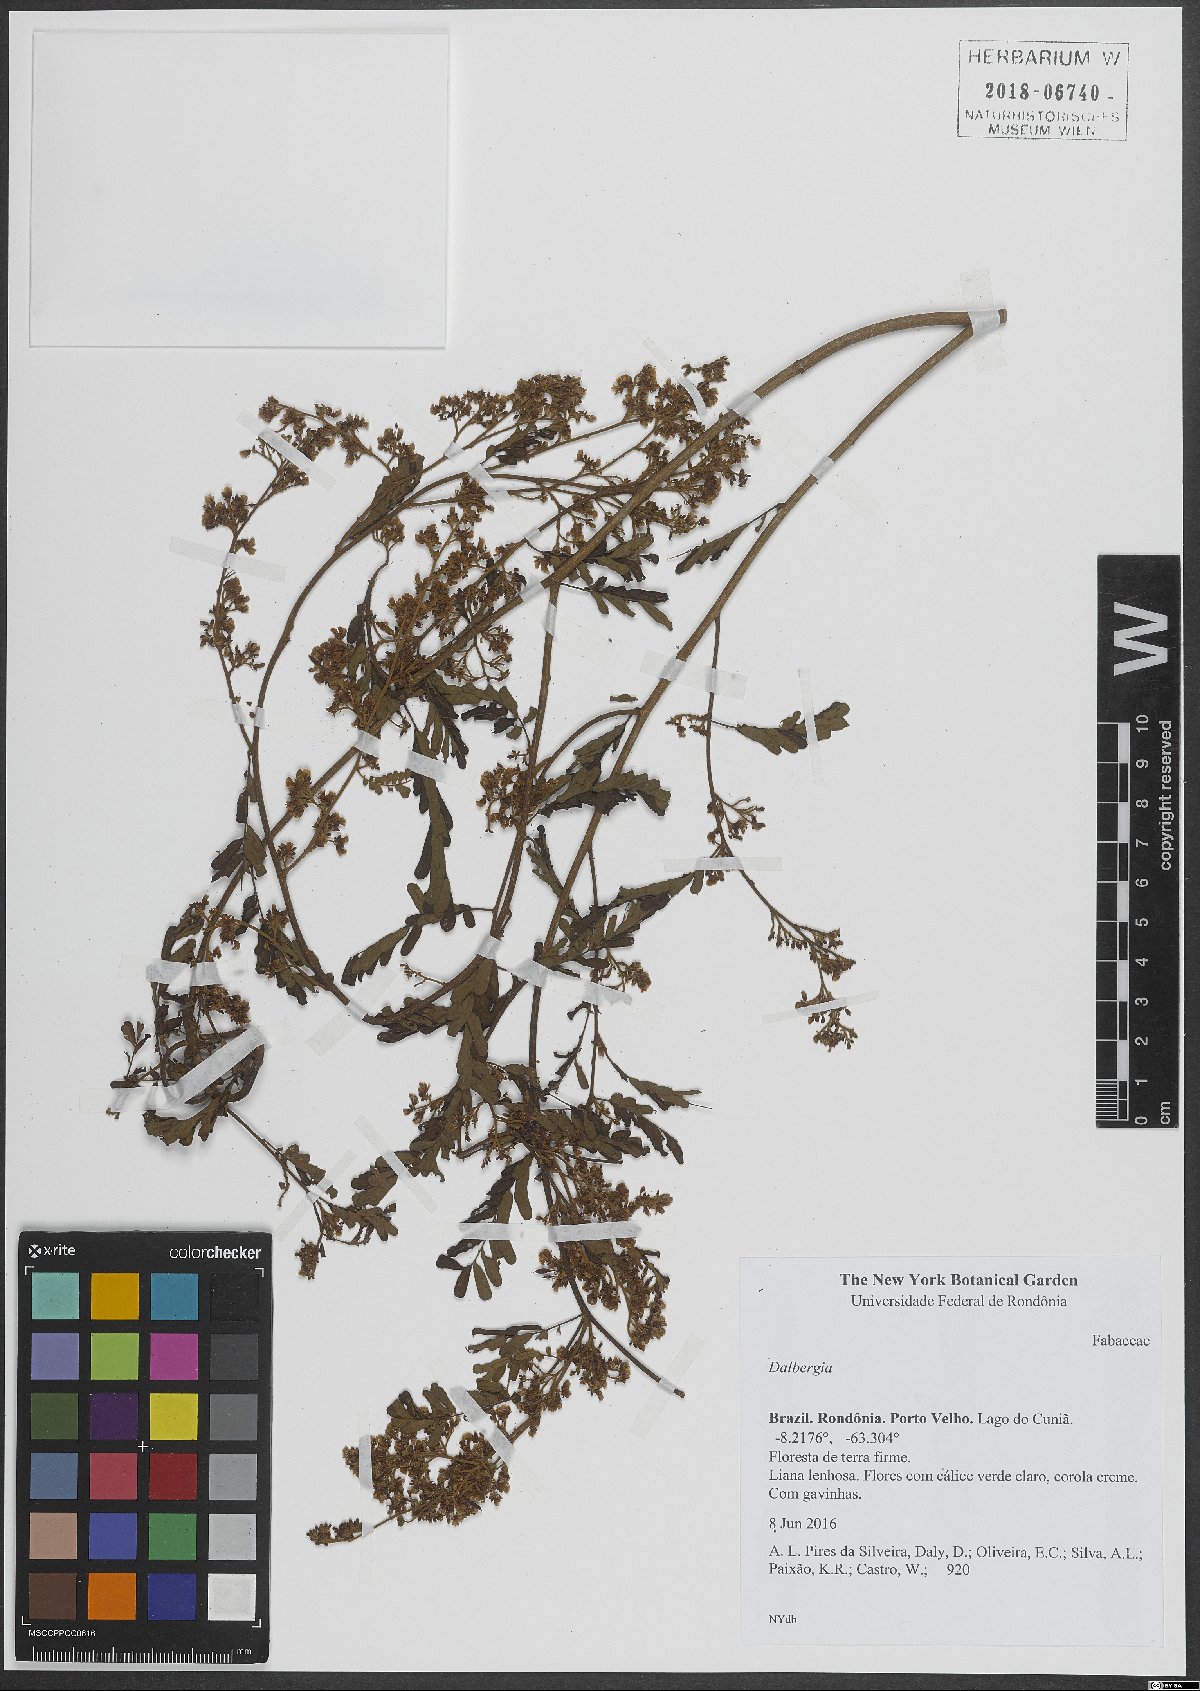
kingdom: Plantae
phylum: Tracheophyta
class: Magnoliopsida
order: Fabales
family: Fabaceae
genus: Dalbergia
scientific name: Dalbergia
